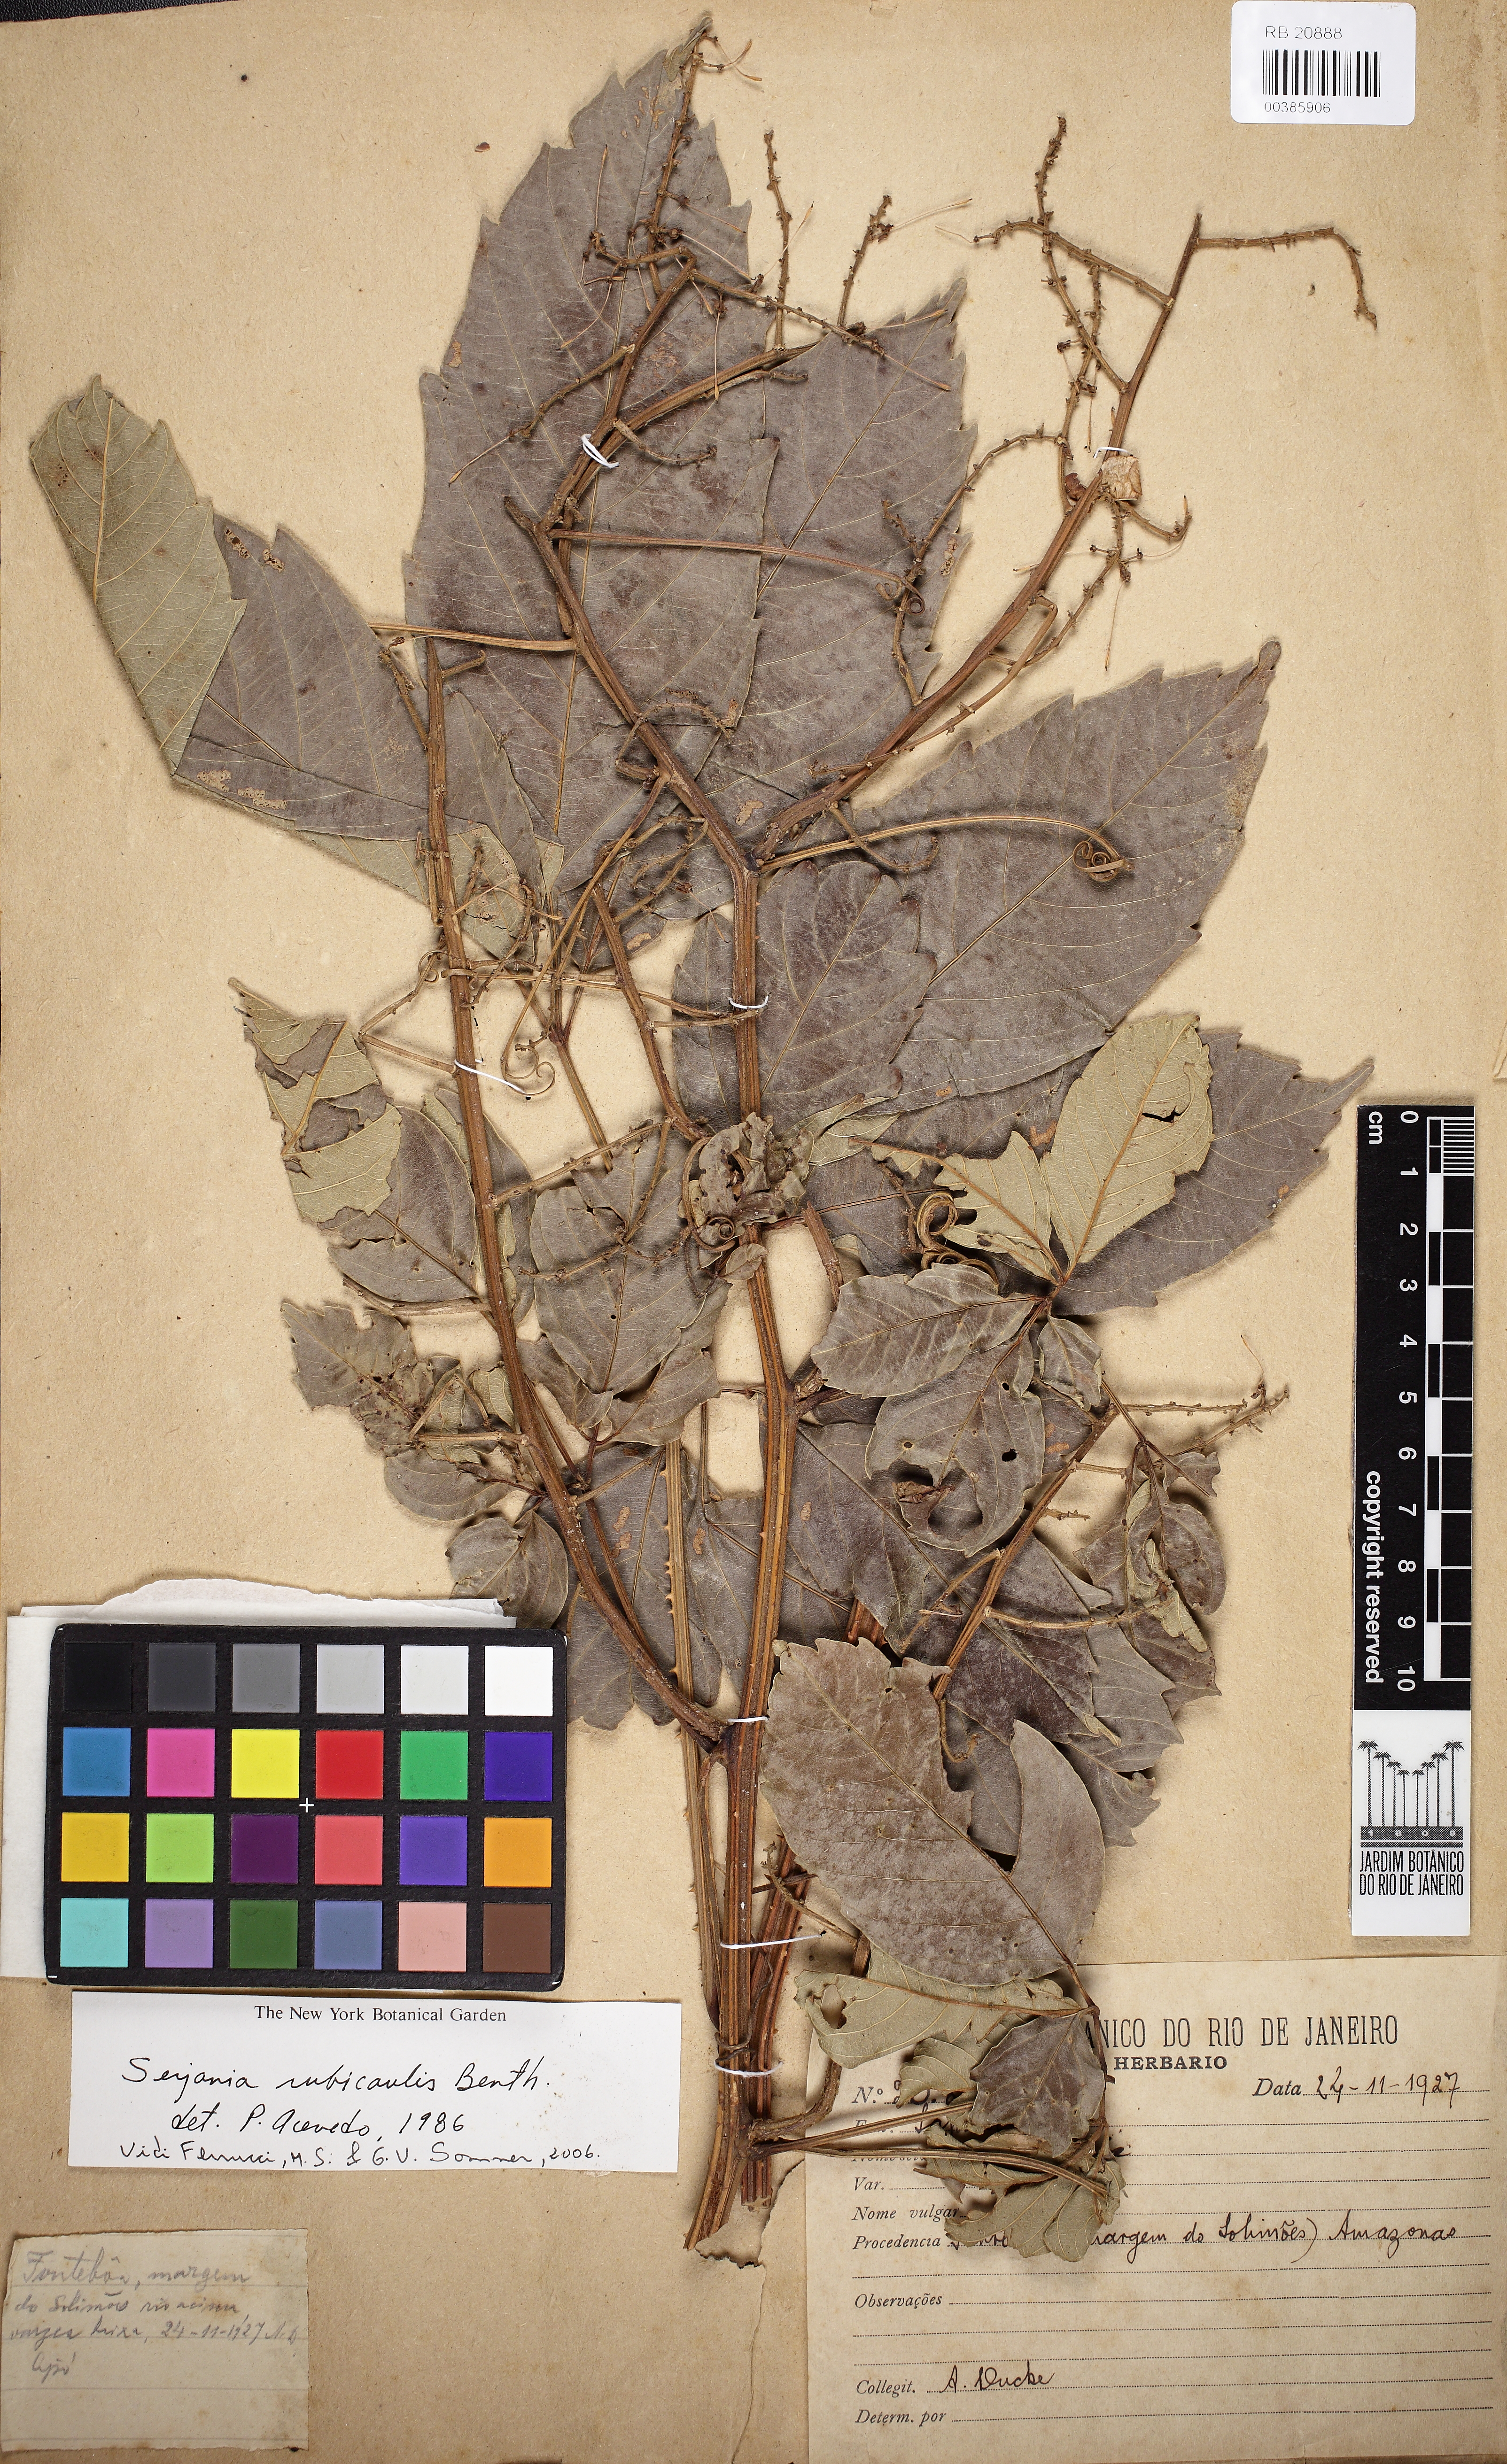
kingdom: Plantae
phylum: Tracheophyta
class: Magnoliopsida
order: Sapindales
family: Sapindaceae
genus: Serjania
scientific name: Serjania rubicaulis
